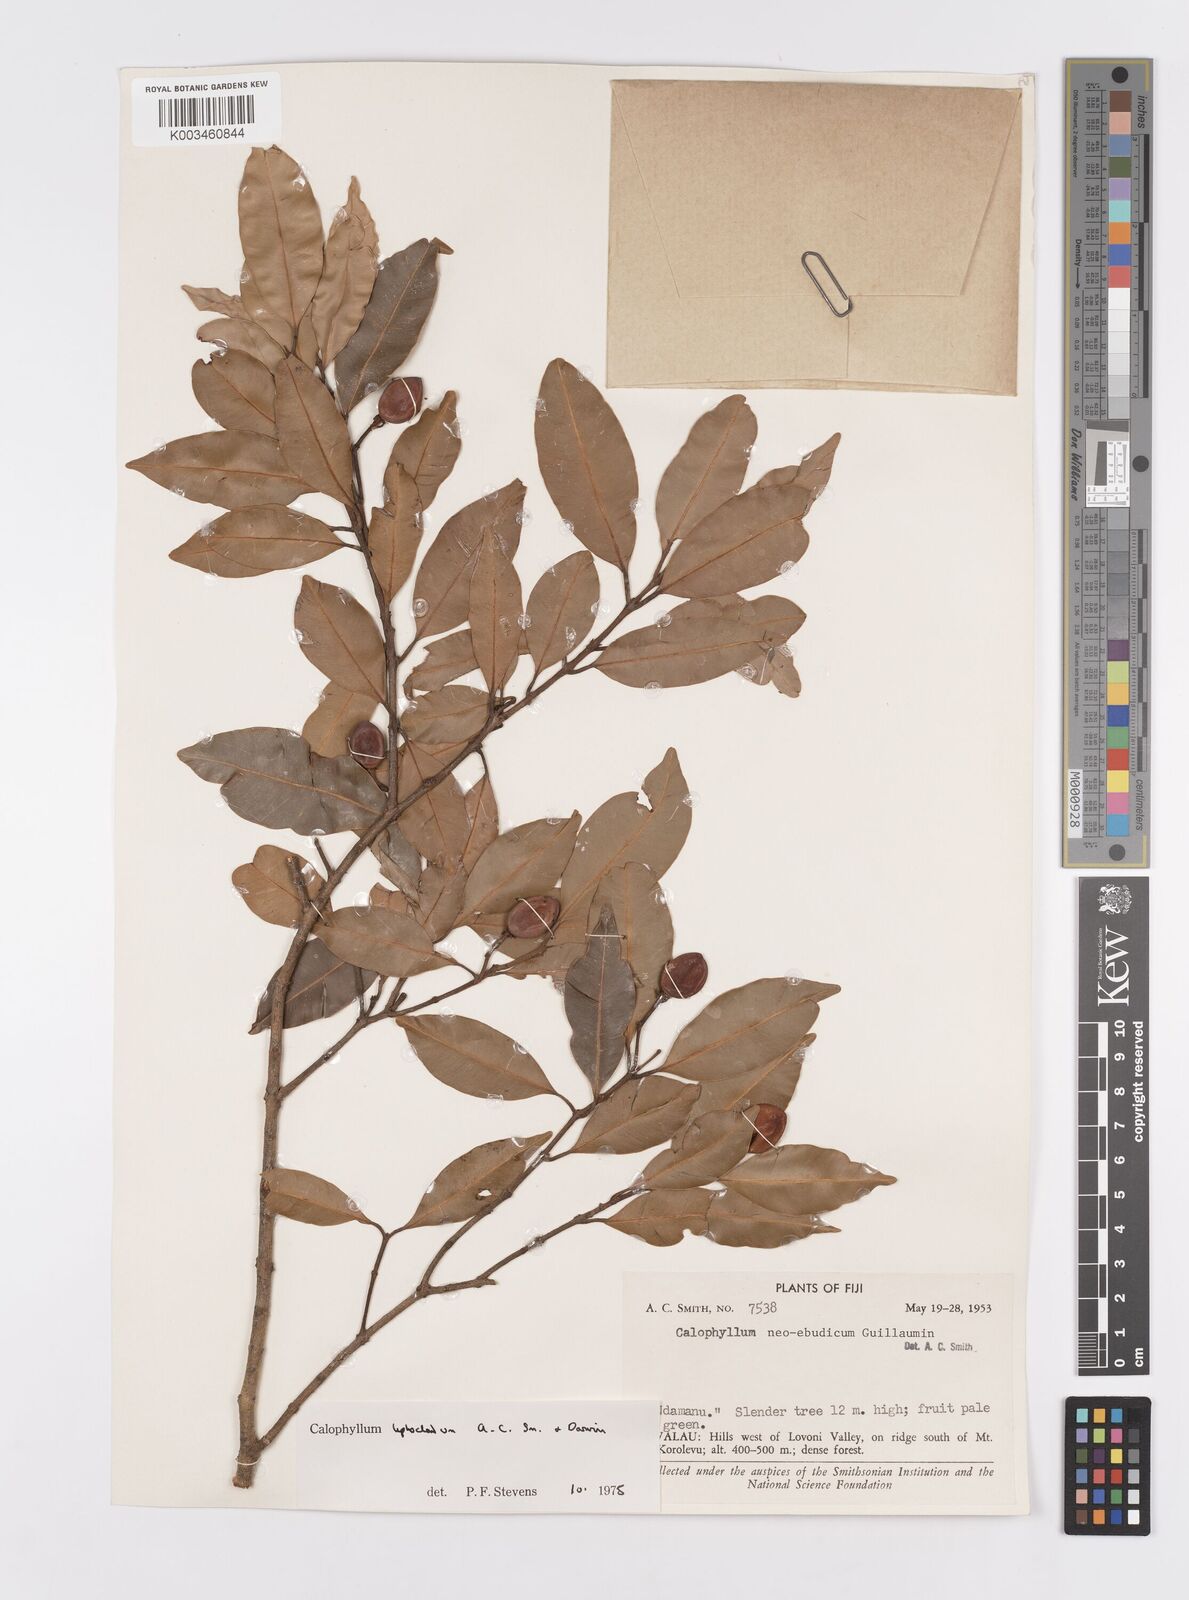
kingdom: Plantae
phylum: Tracheophyta
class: Magnoliopsida
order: Malpighiales
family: Calophyllaceae
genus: Calophyllum
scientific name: Calophyllum leptocladum
